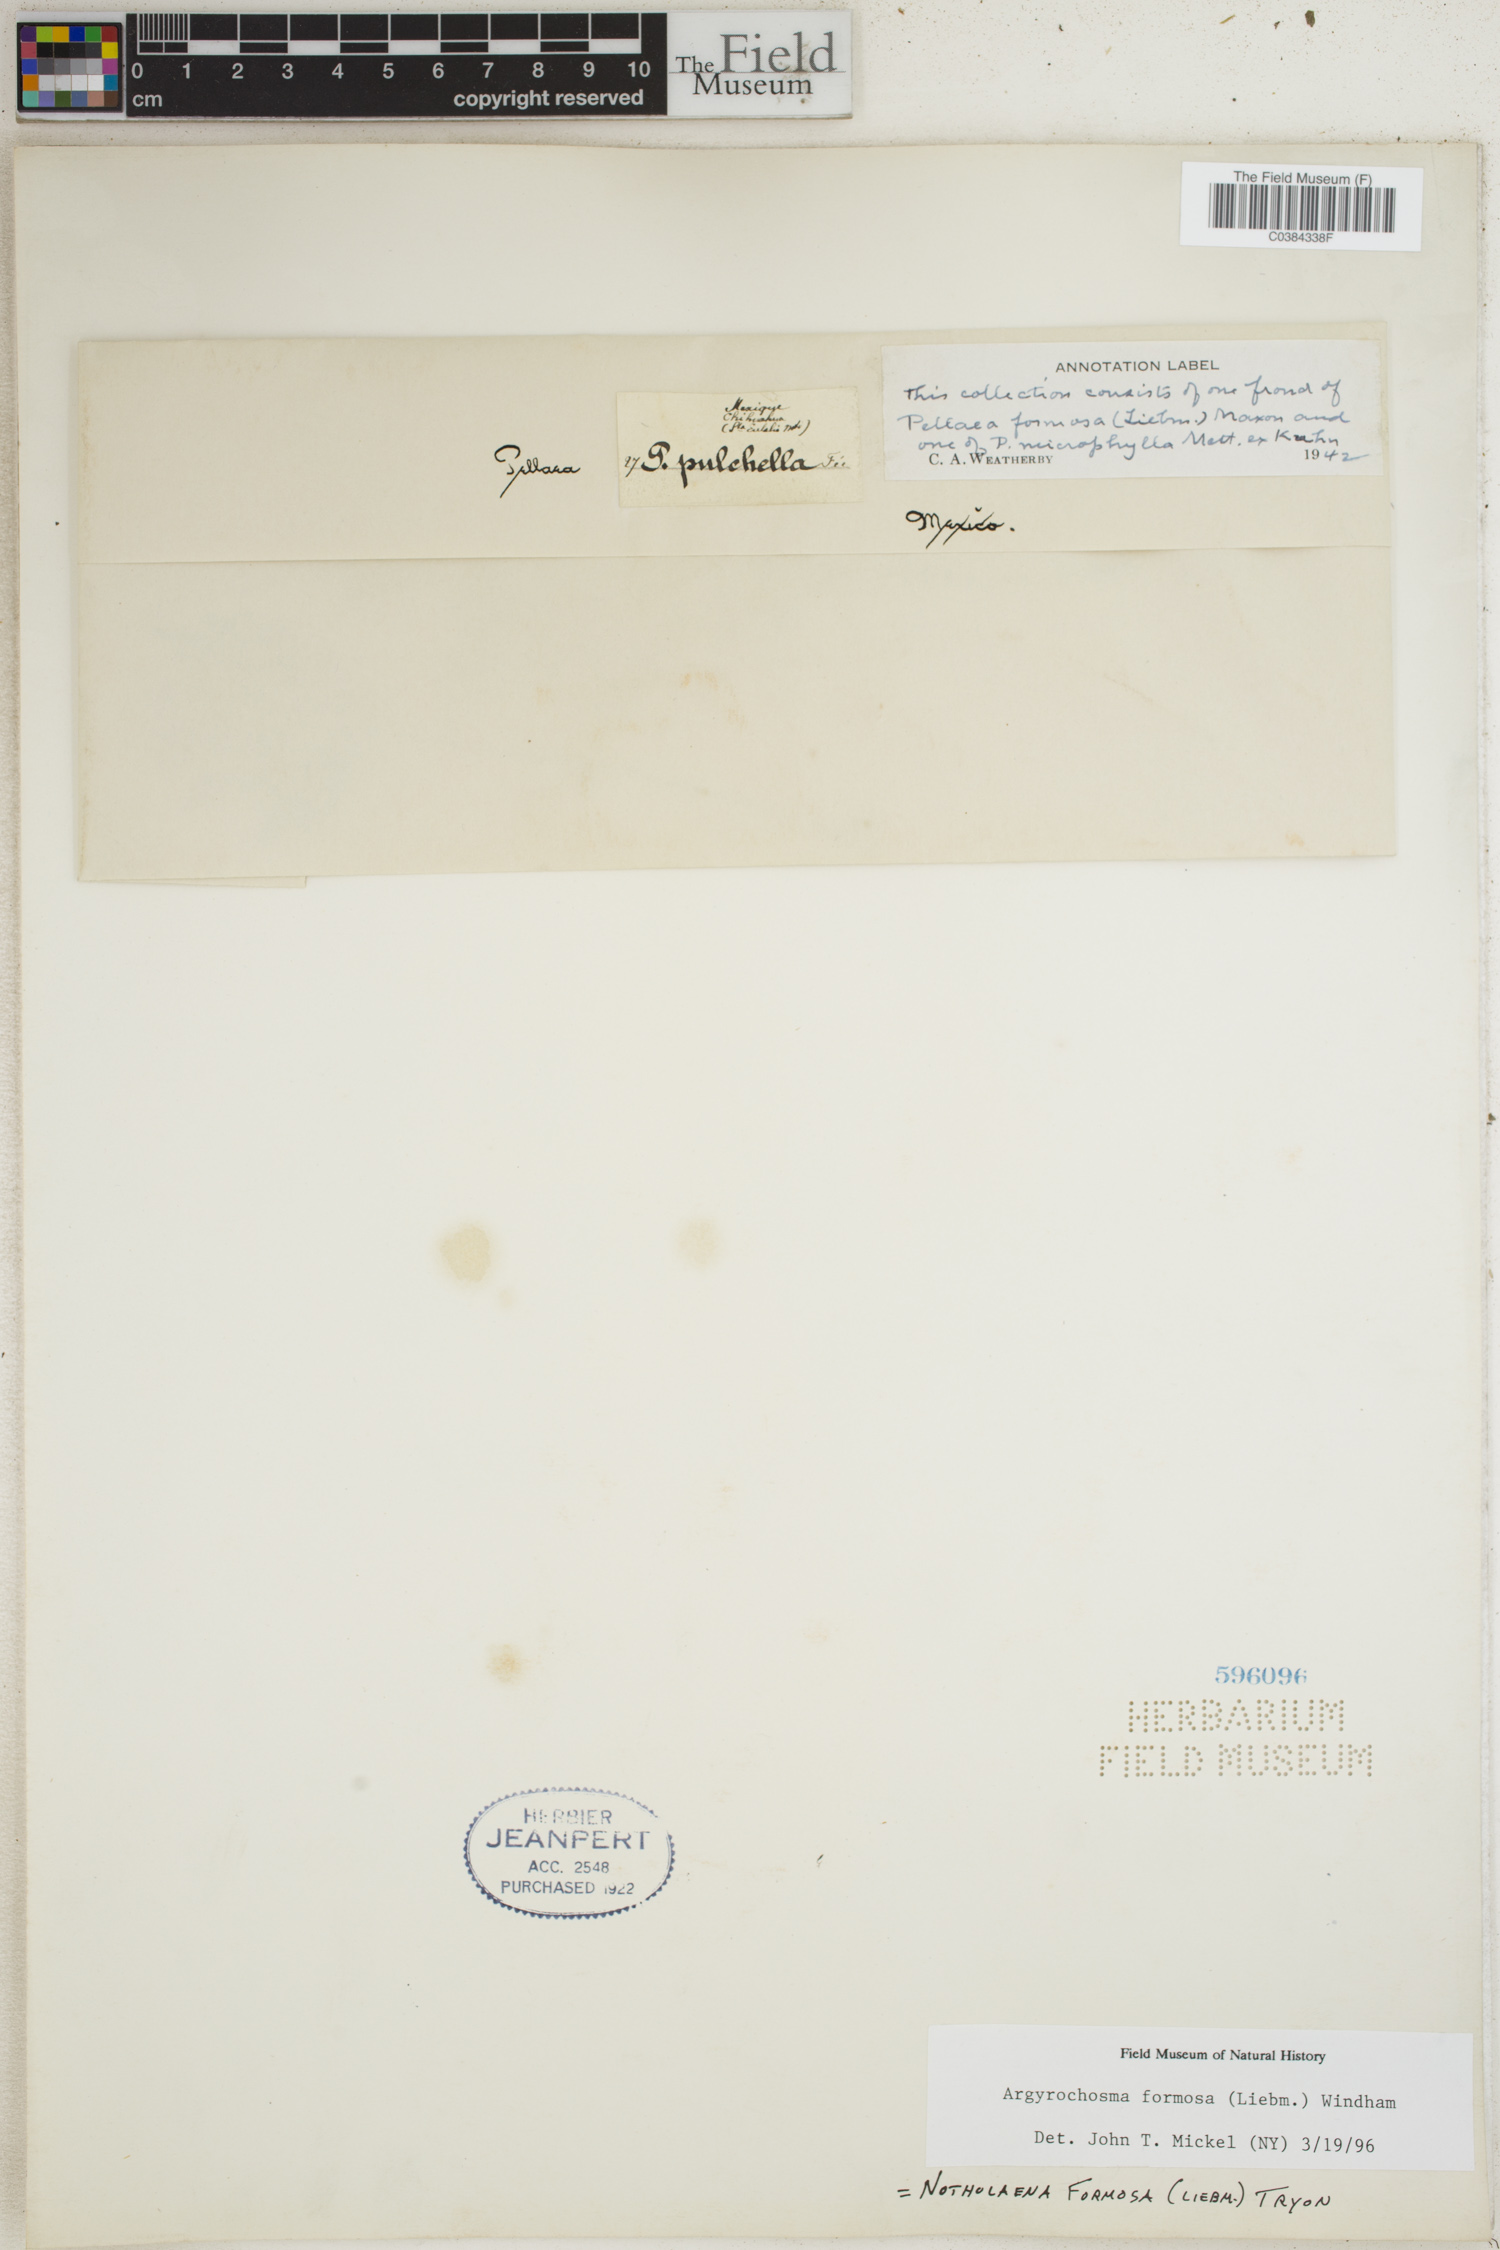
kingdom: Plantae
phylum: Tracheophyta
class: Polypodiopsida
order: Polypodiales
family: Pteridaceae
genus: Argyrochosma
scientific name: Argyrochosma formosa
